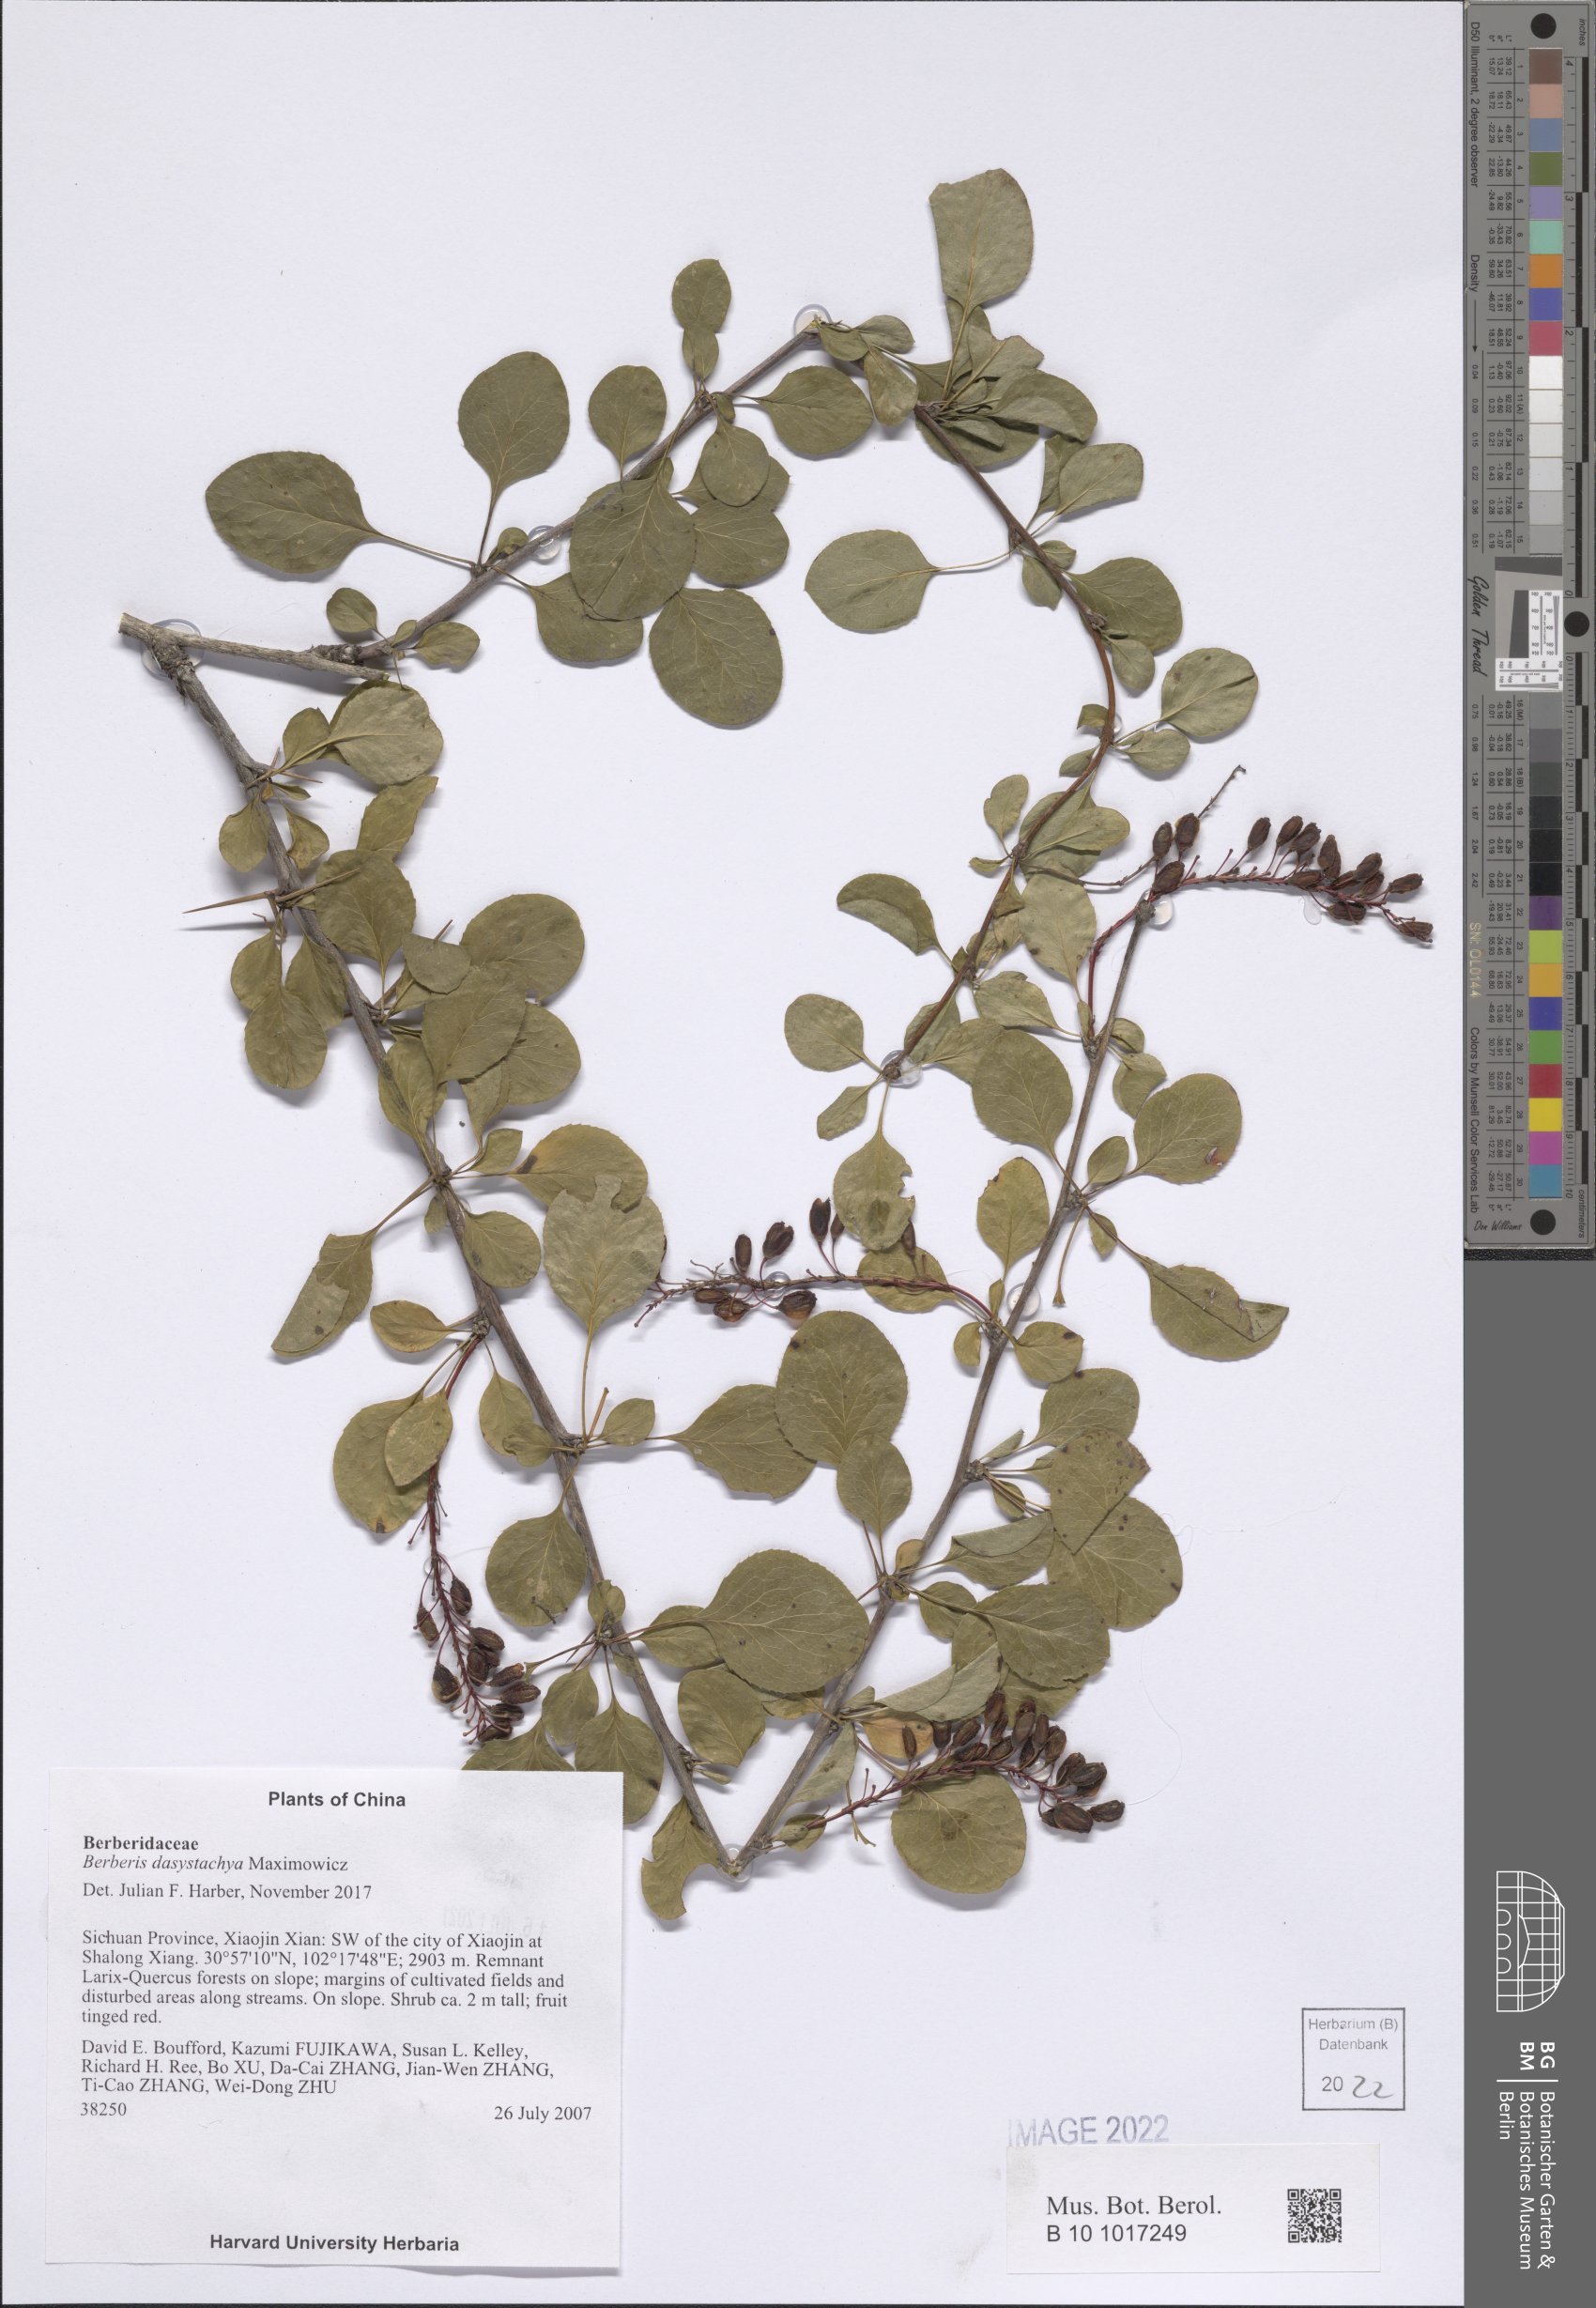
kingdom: Plantae
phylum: Tracheophyta
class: Magnoliopsida
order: Ranunculales
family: Berberidaceae
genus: Berberis
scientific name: Berberis dasystachya
